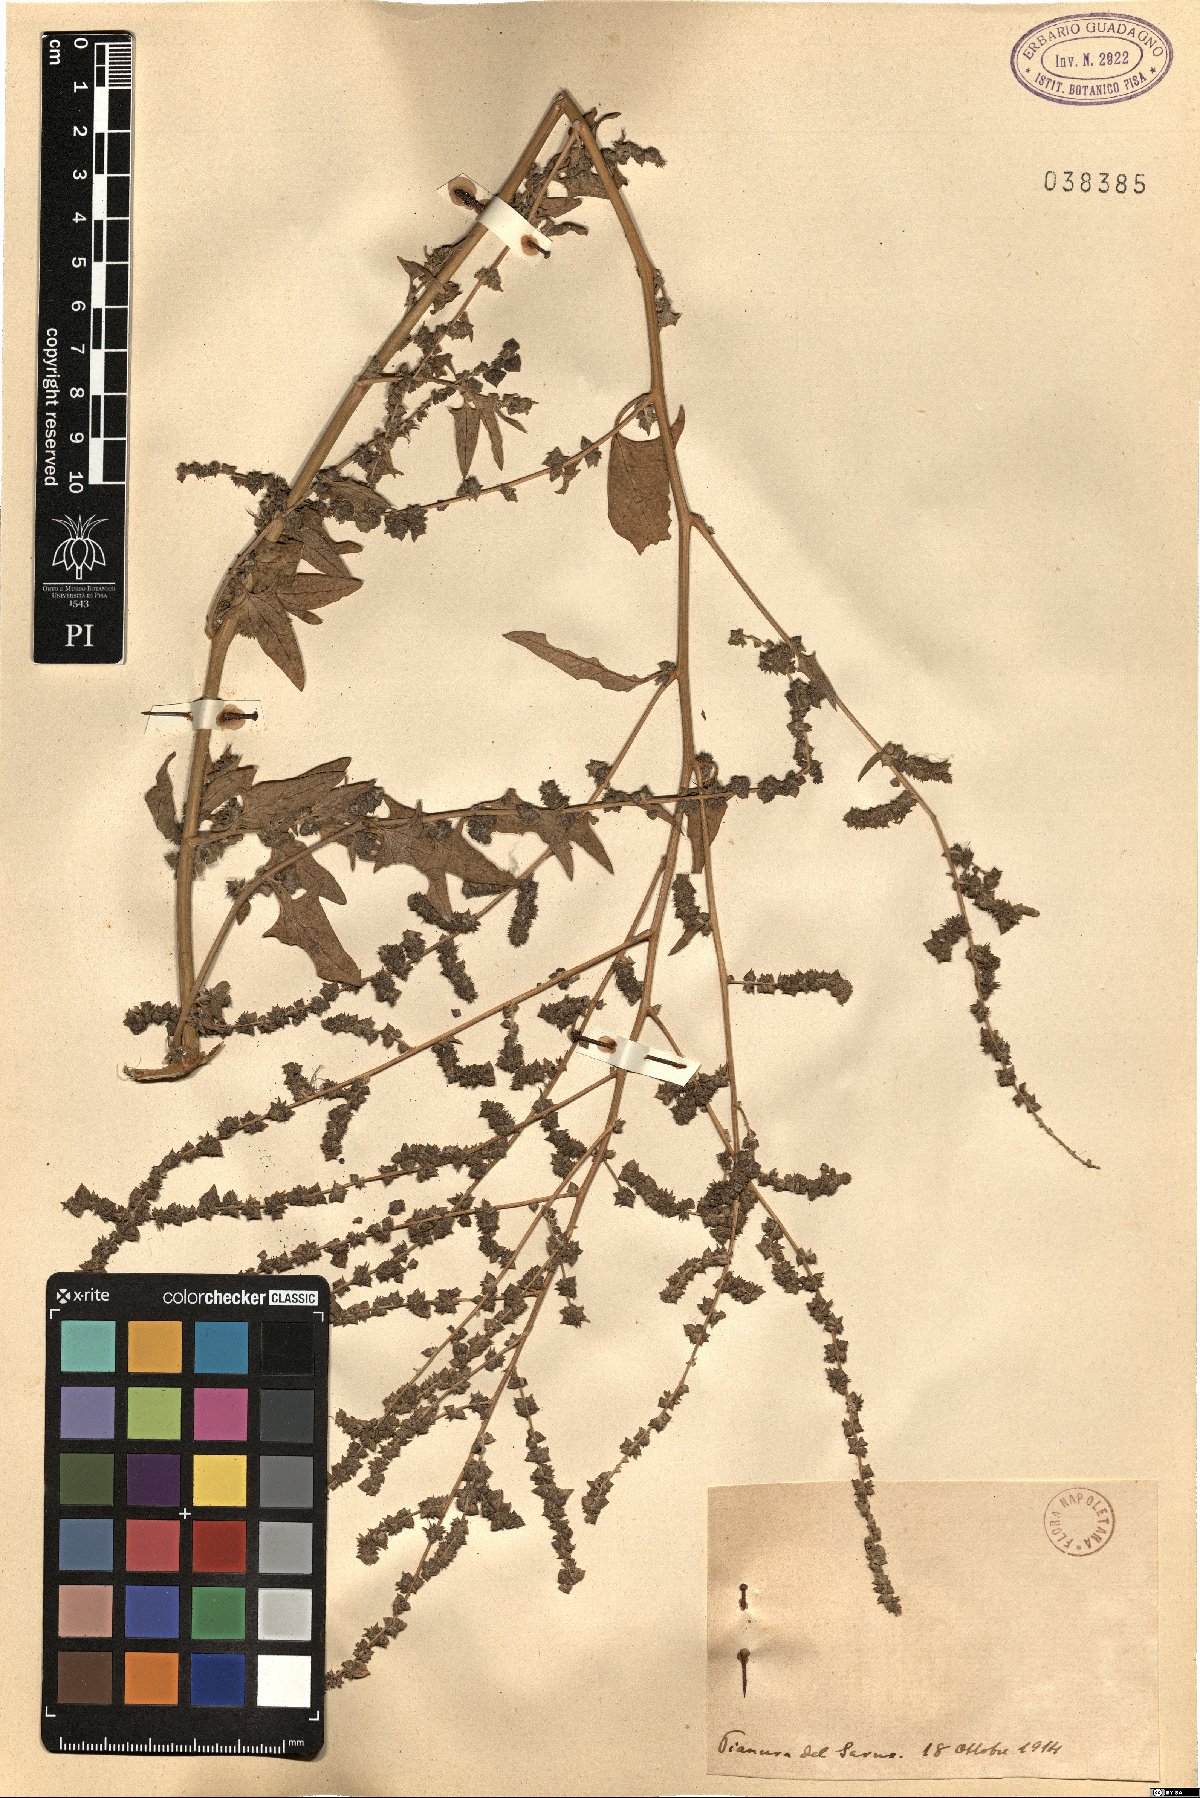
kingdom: Plantae
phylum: Tracheophyta
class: Magnoliopsida
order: Caryophyllales
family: Amaranthaceae
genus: Atriplex
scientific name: Atriplex
